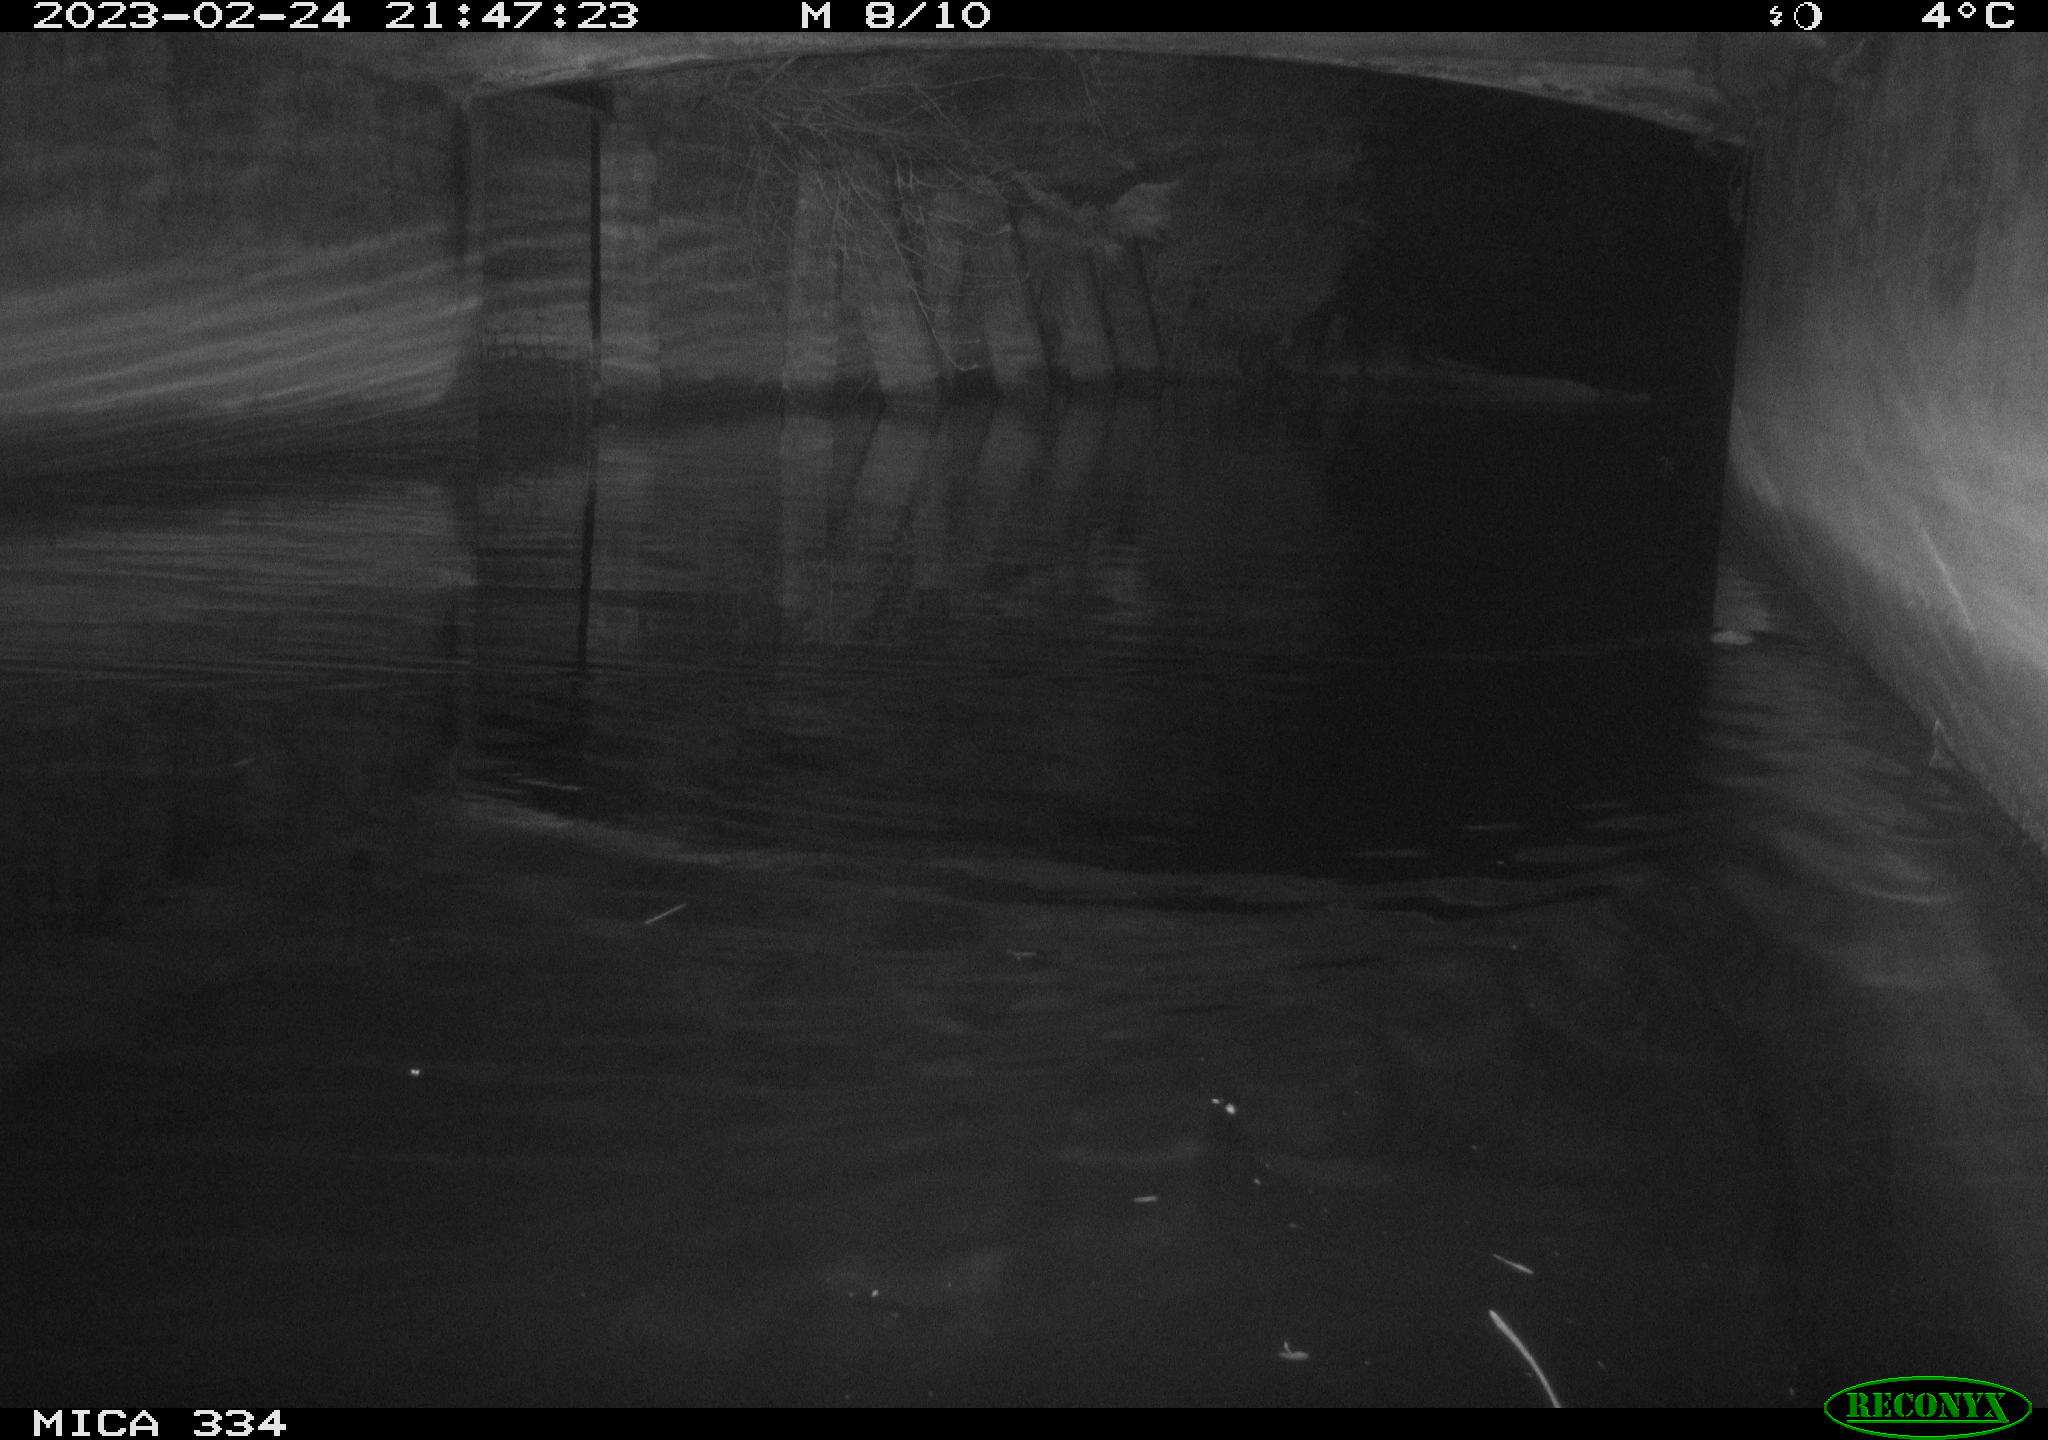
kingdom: Animalia
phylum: Chordata
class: Mammalia
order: Rodentia
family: Muridae
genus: Rattus
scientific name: Rattus norvegicus
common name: Brown rat
